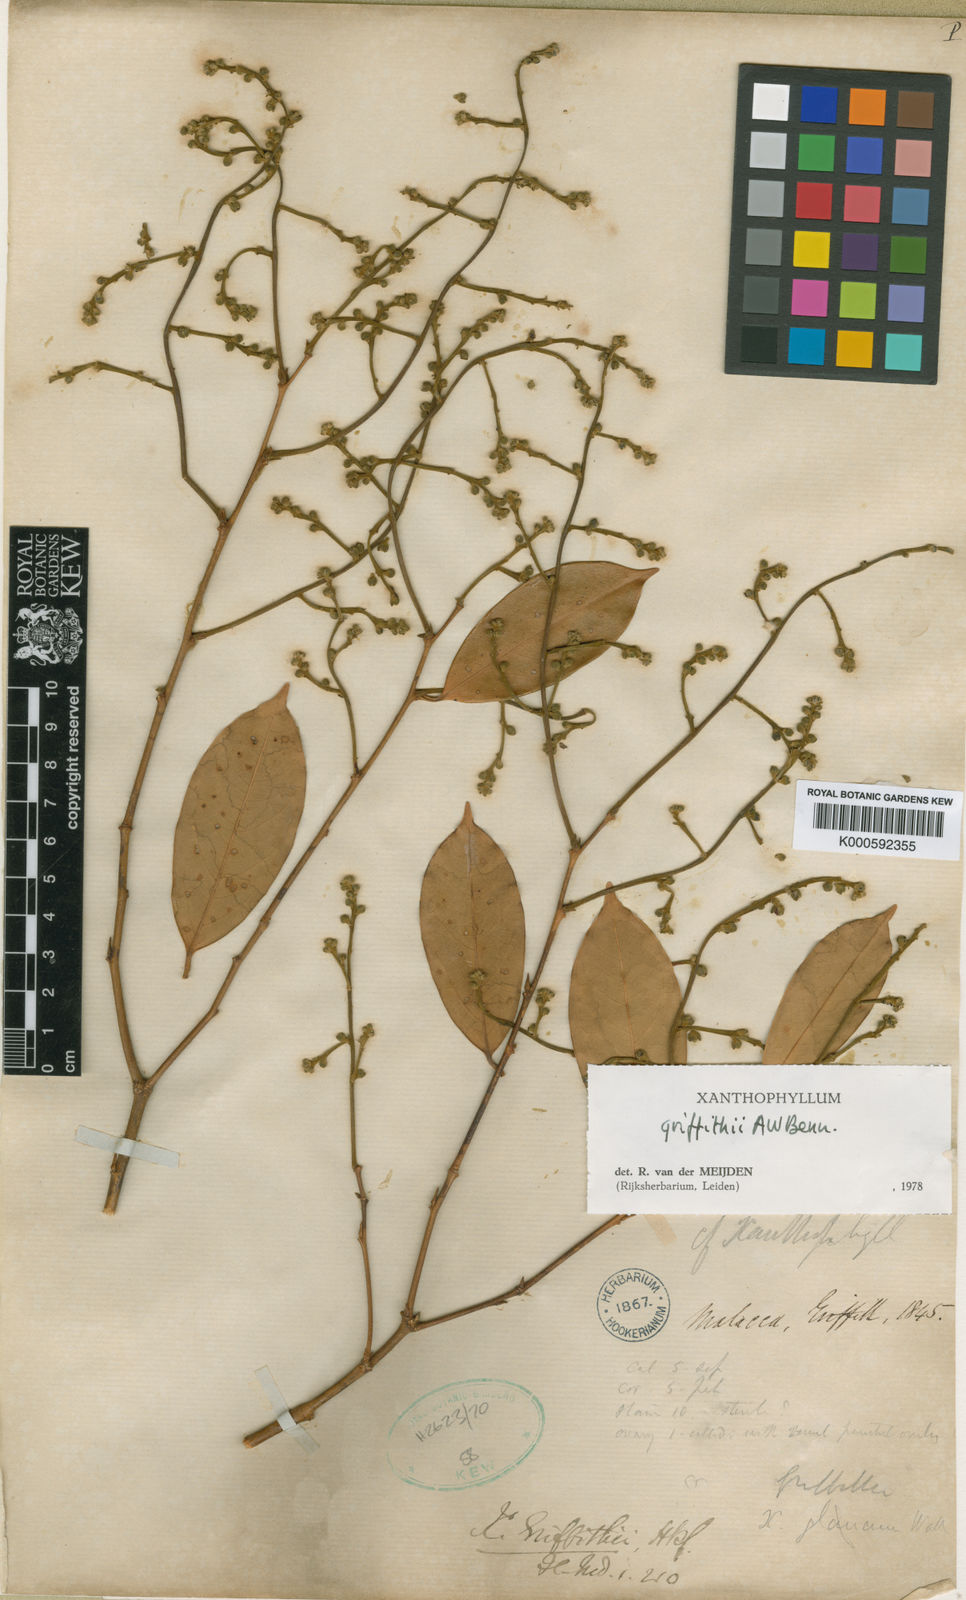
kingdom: Plantae
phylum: Tracheophyta
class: Magnoliopsida
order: Fabales
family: Polygalaceae
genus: Xanthophyllum
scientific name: Xanthophyllum griffithii
